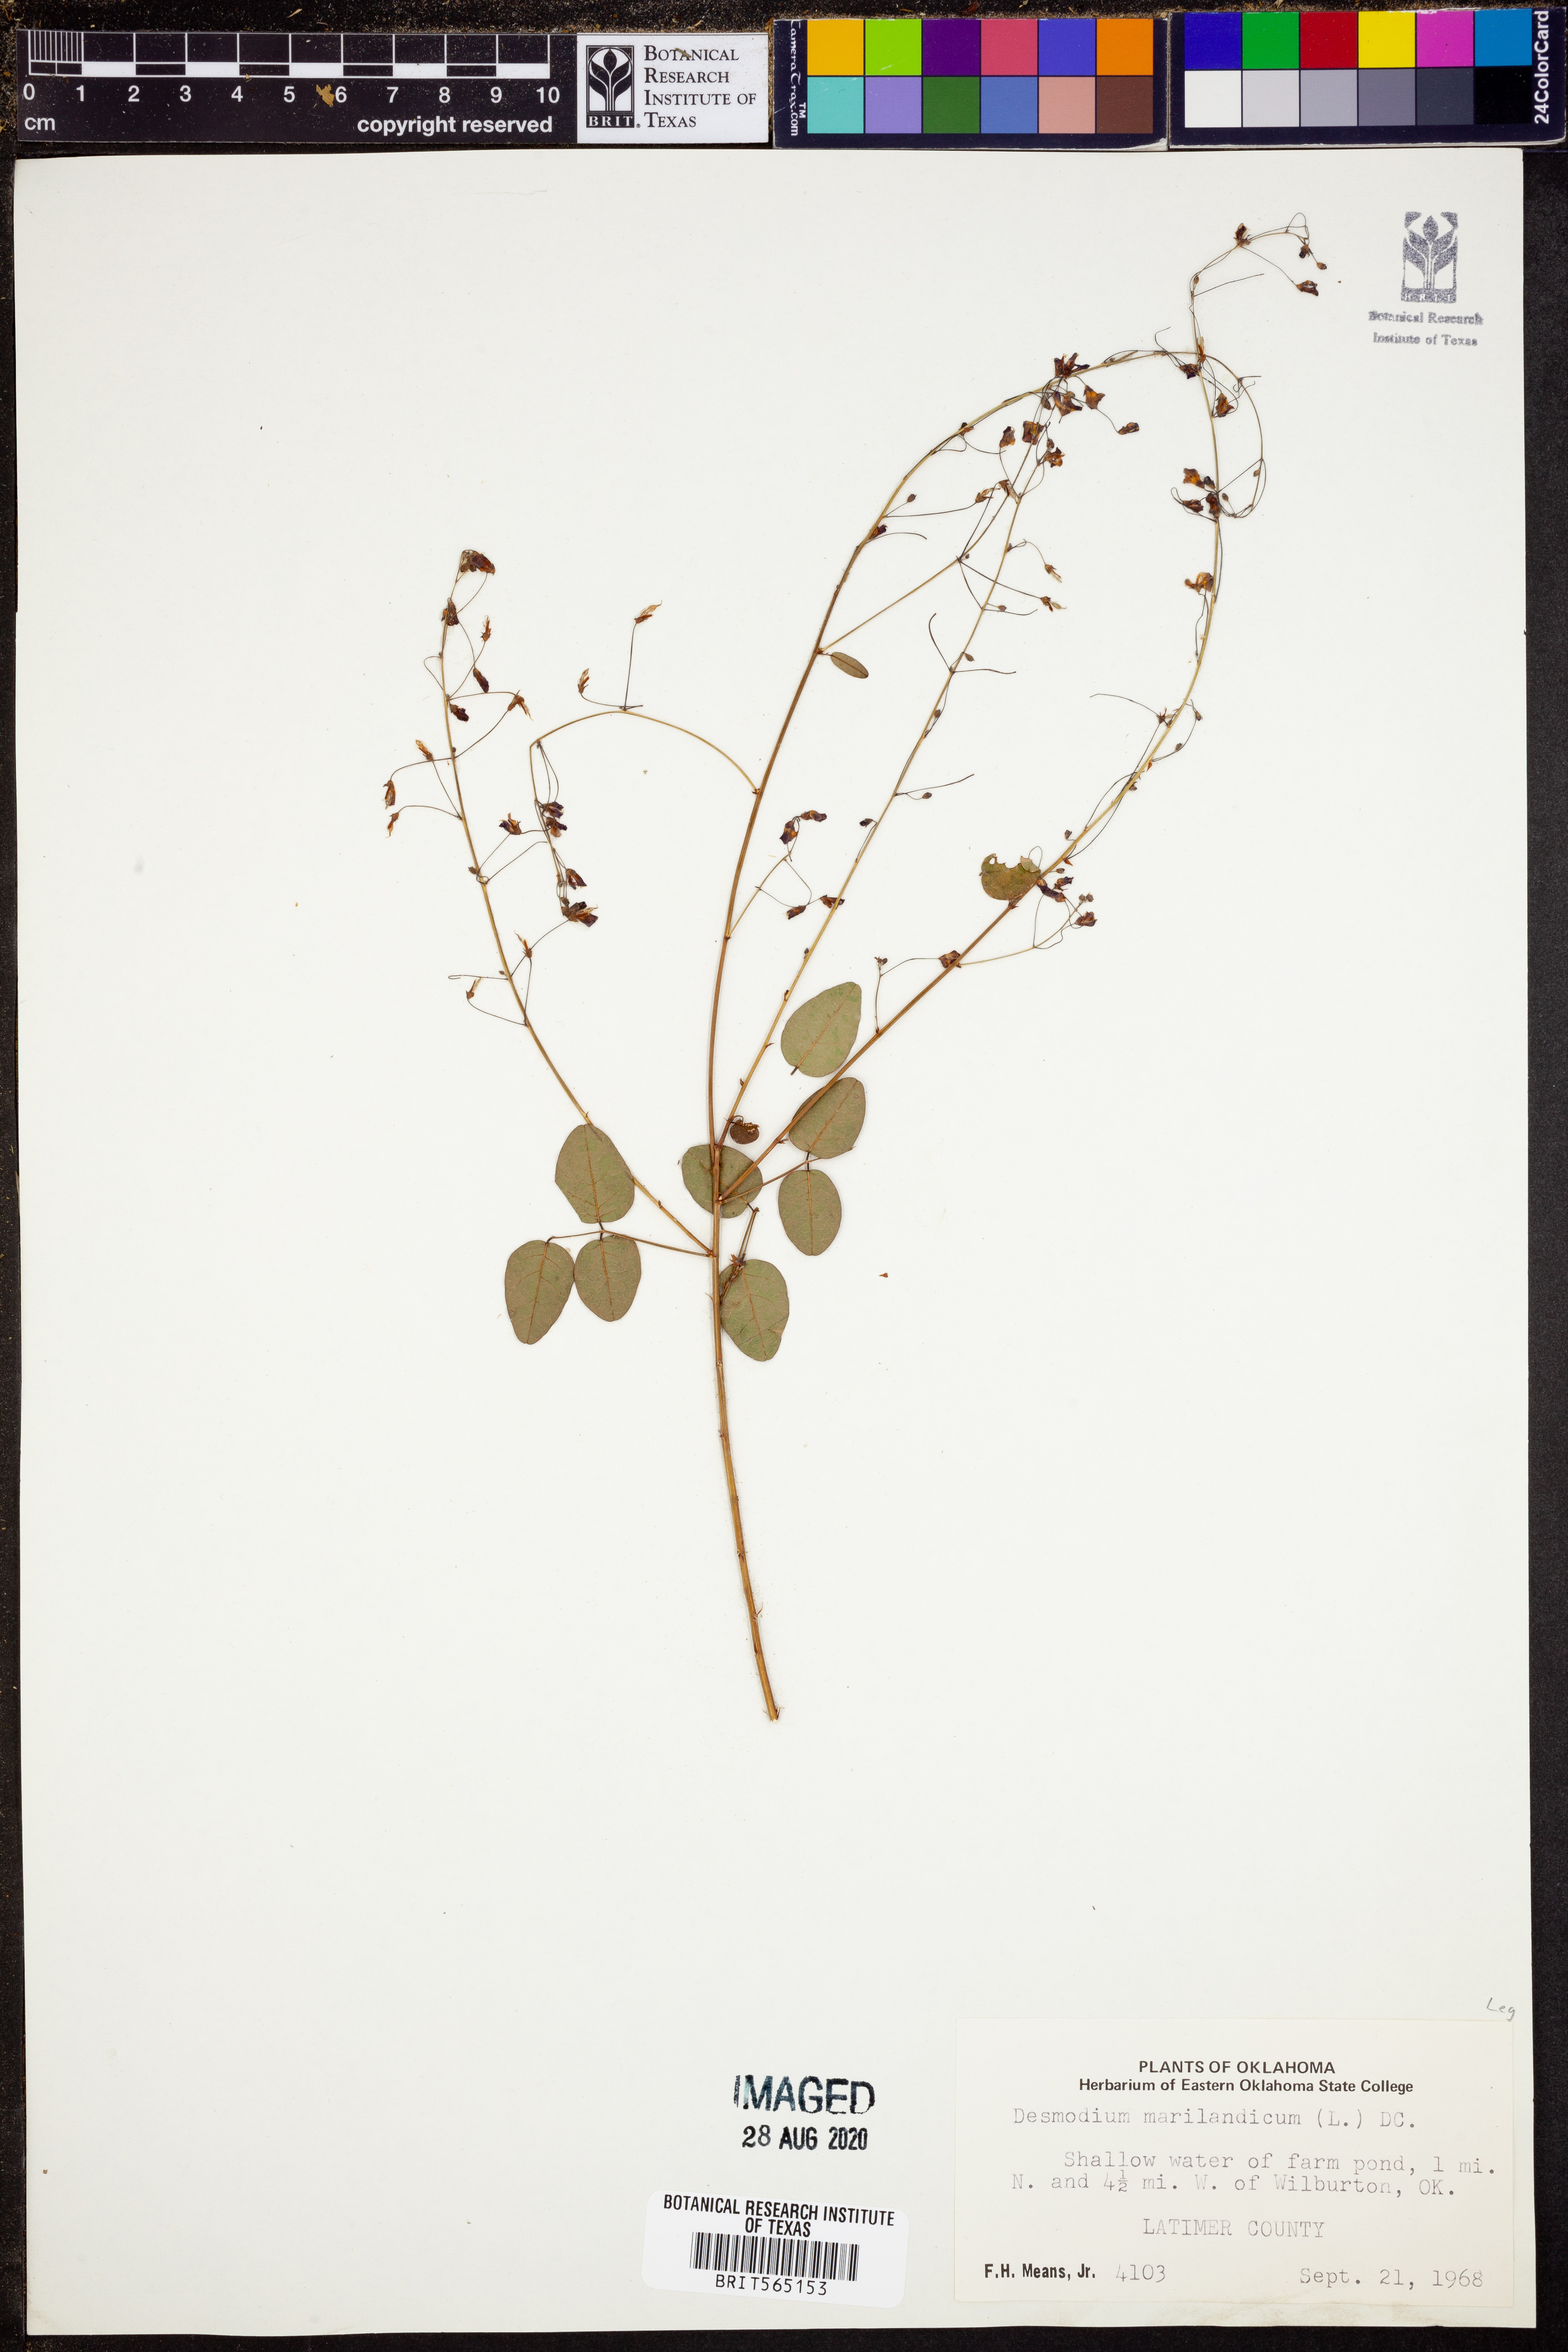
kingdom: Plantae
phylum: Tracheophyta
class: Magnoliopsida
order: Fabales
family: Fabaceae
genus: Desmodium
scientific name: Desmodium marilandicum
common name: Maryland tick-trefoil
